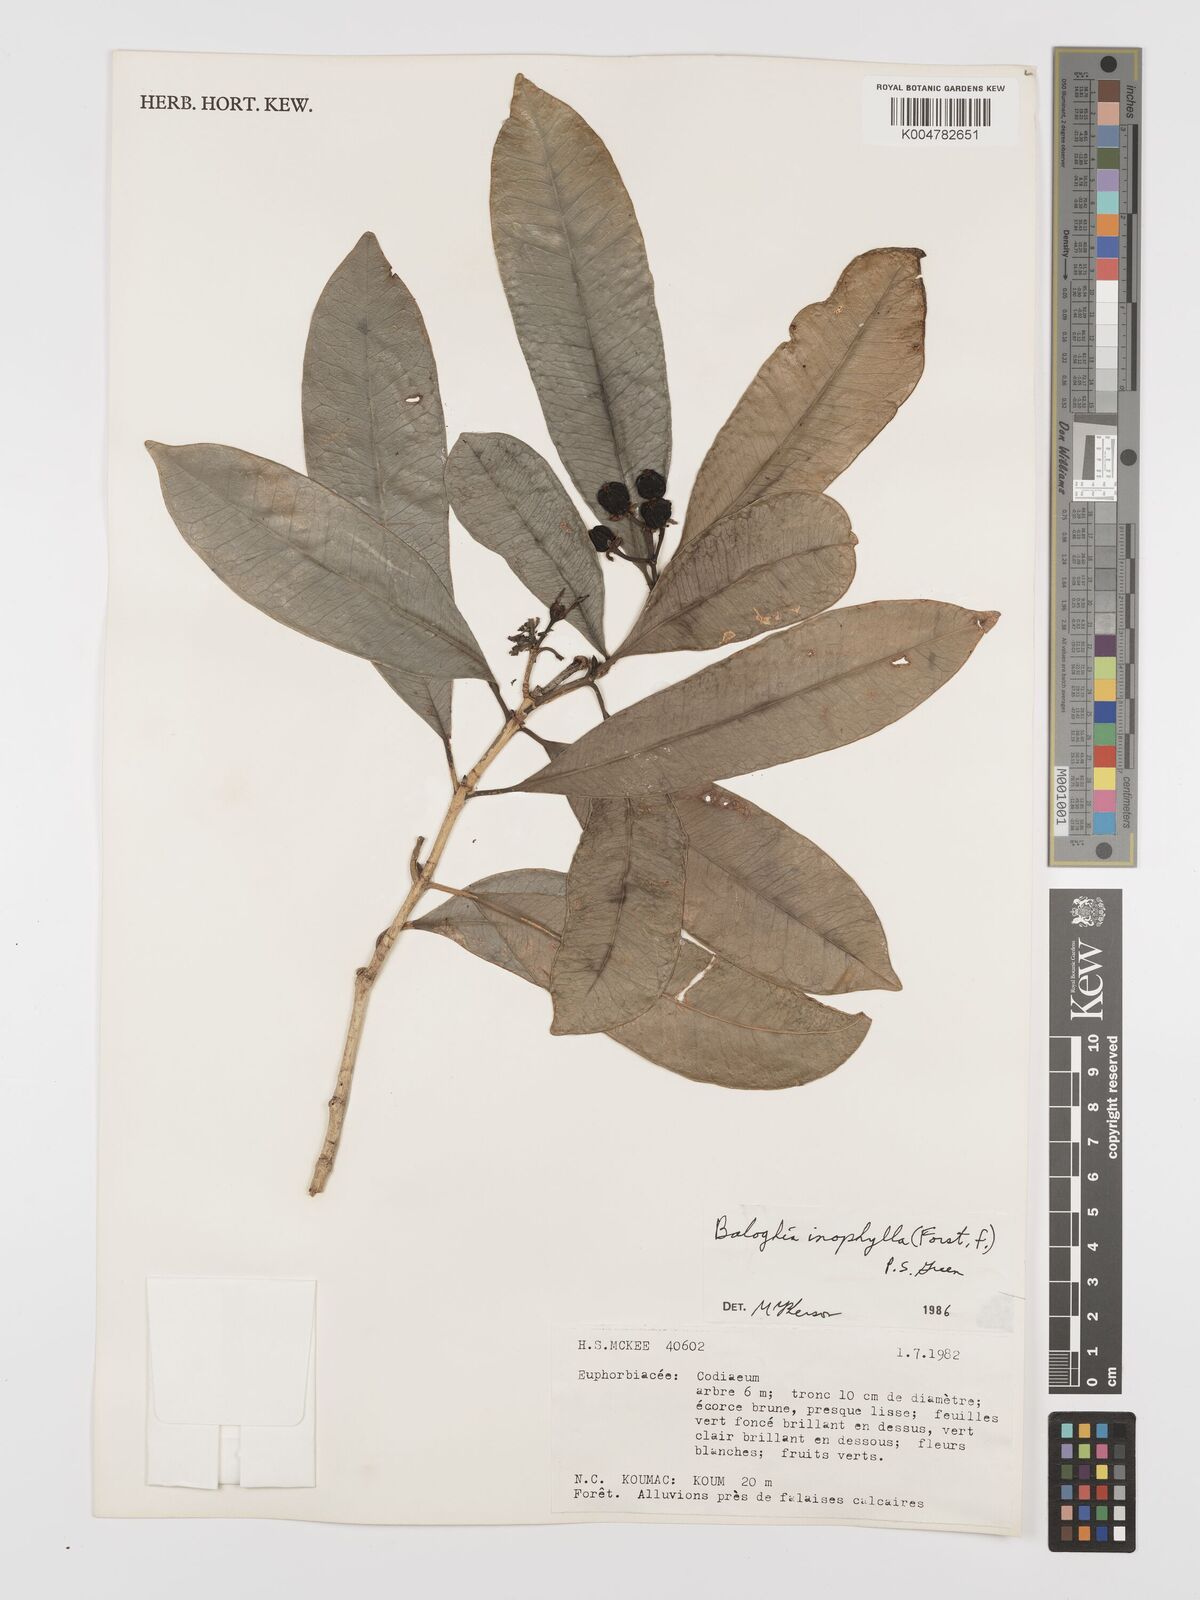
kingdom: Plantae
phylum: Tracheophyta
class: Magnoliopsida
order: Malpighiales
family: Euphorbiaceae
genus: Baloghia
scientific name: Baloghia inophylla
